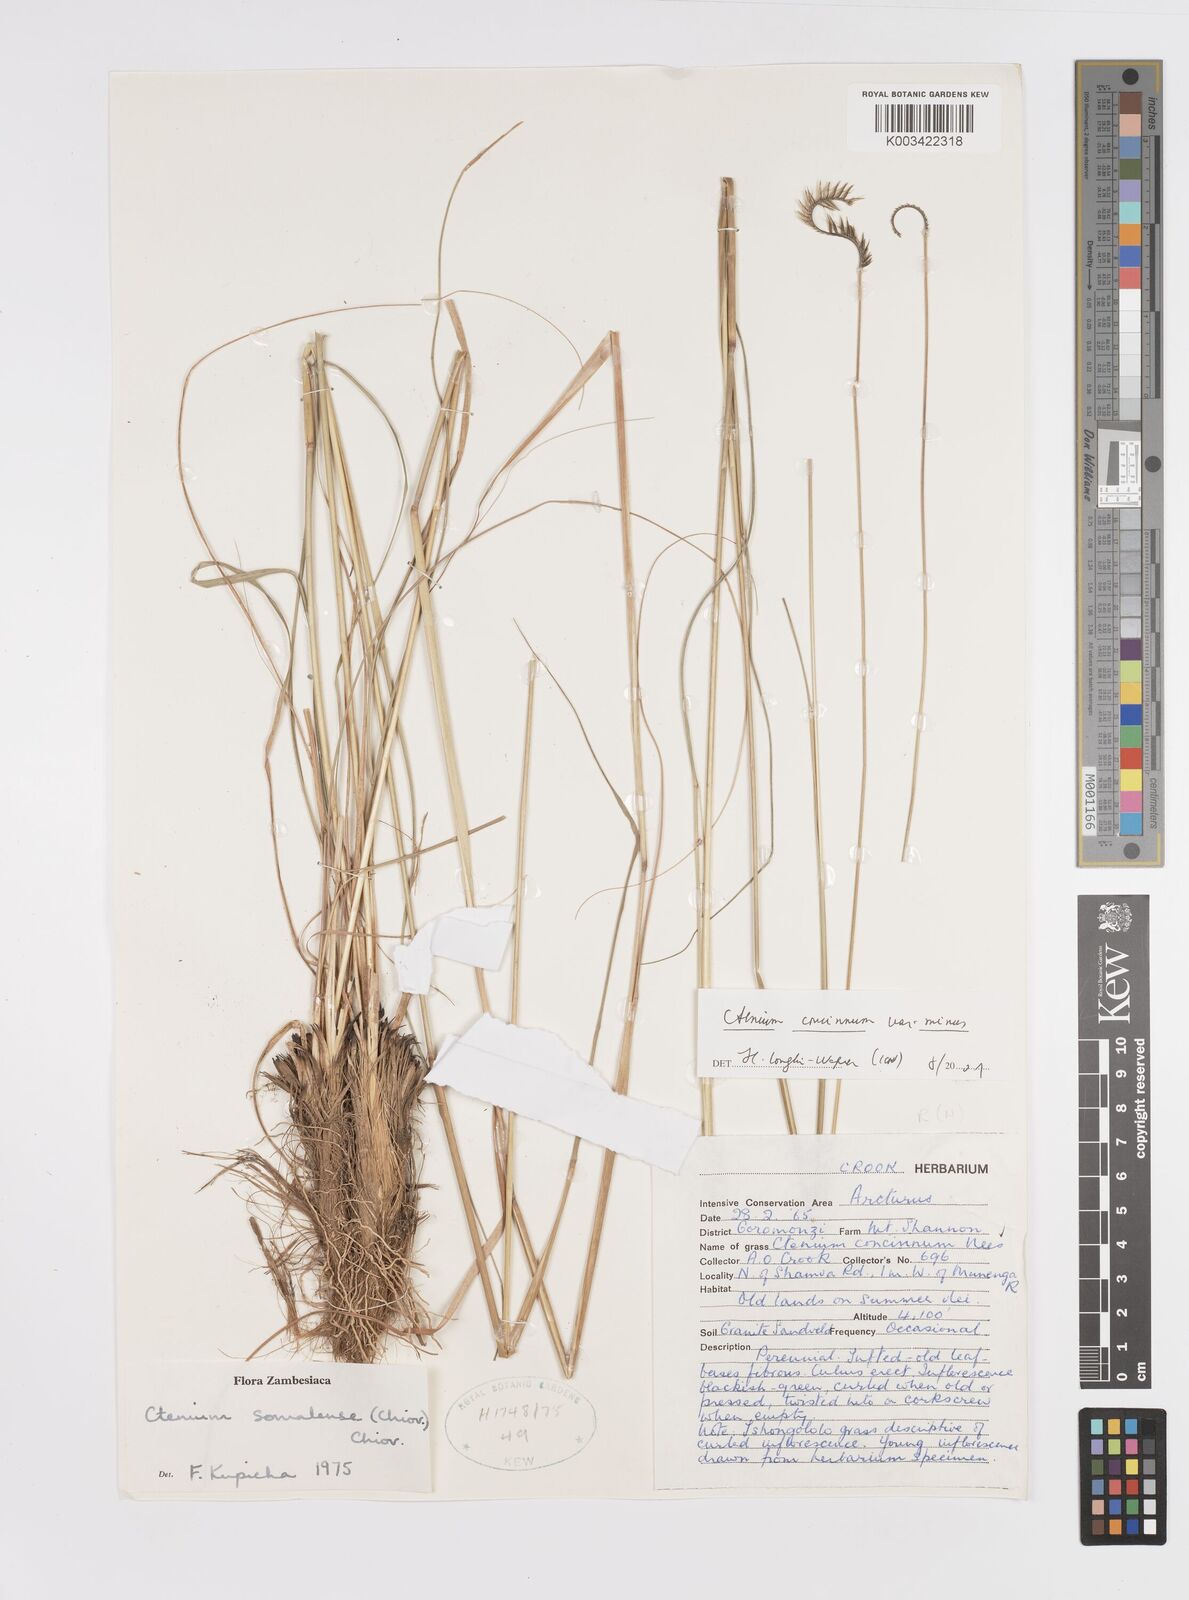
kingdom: Plantae
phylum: Tracheophyta
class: Liliopsida
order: Poales
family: Poaceae
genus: Ctenium
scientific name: Ctenium concinnum
